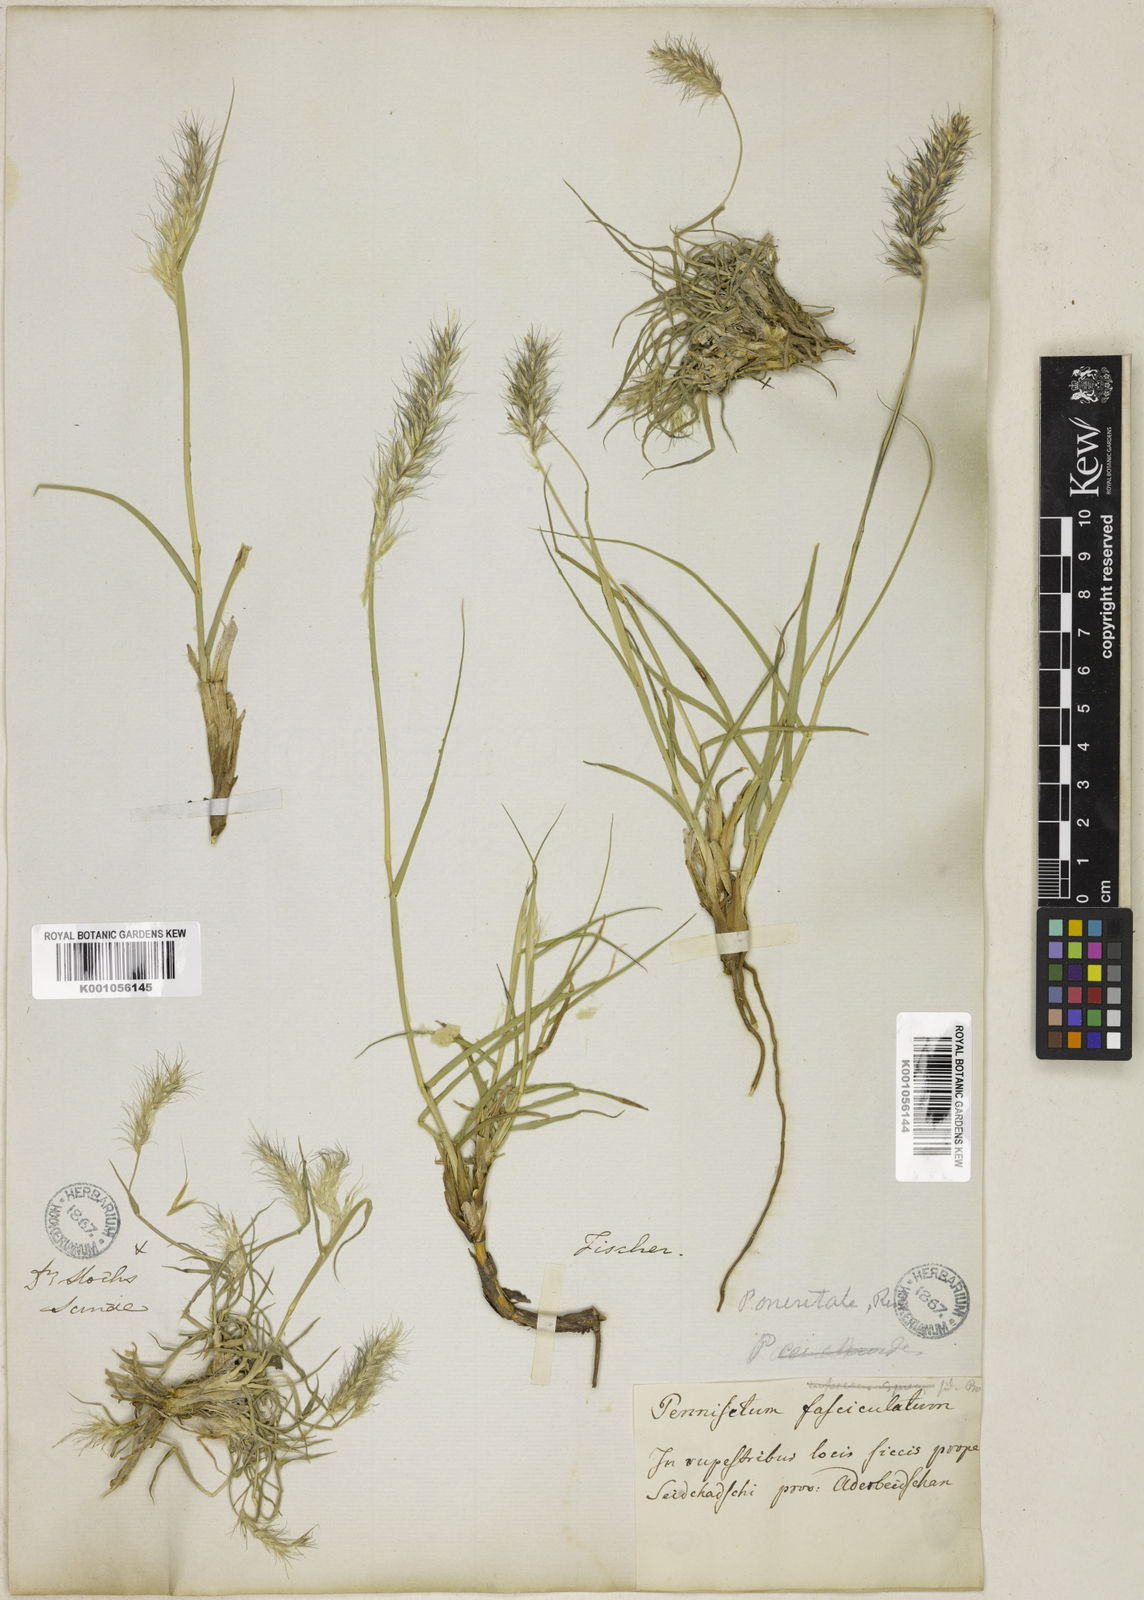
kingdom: Plantae
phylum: Tracheophyta
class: Liliopsida
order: Poales
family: Poaceae
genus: Cenchrus
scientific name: Cenchrus orientalis
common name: Oriental fountain grass
